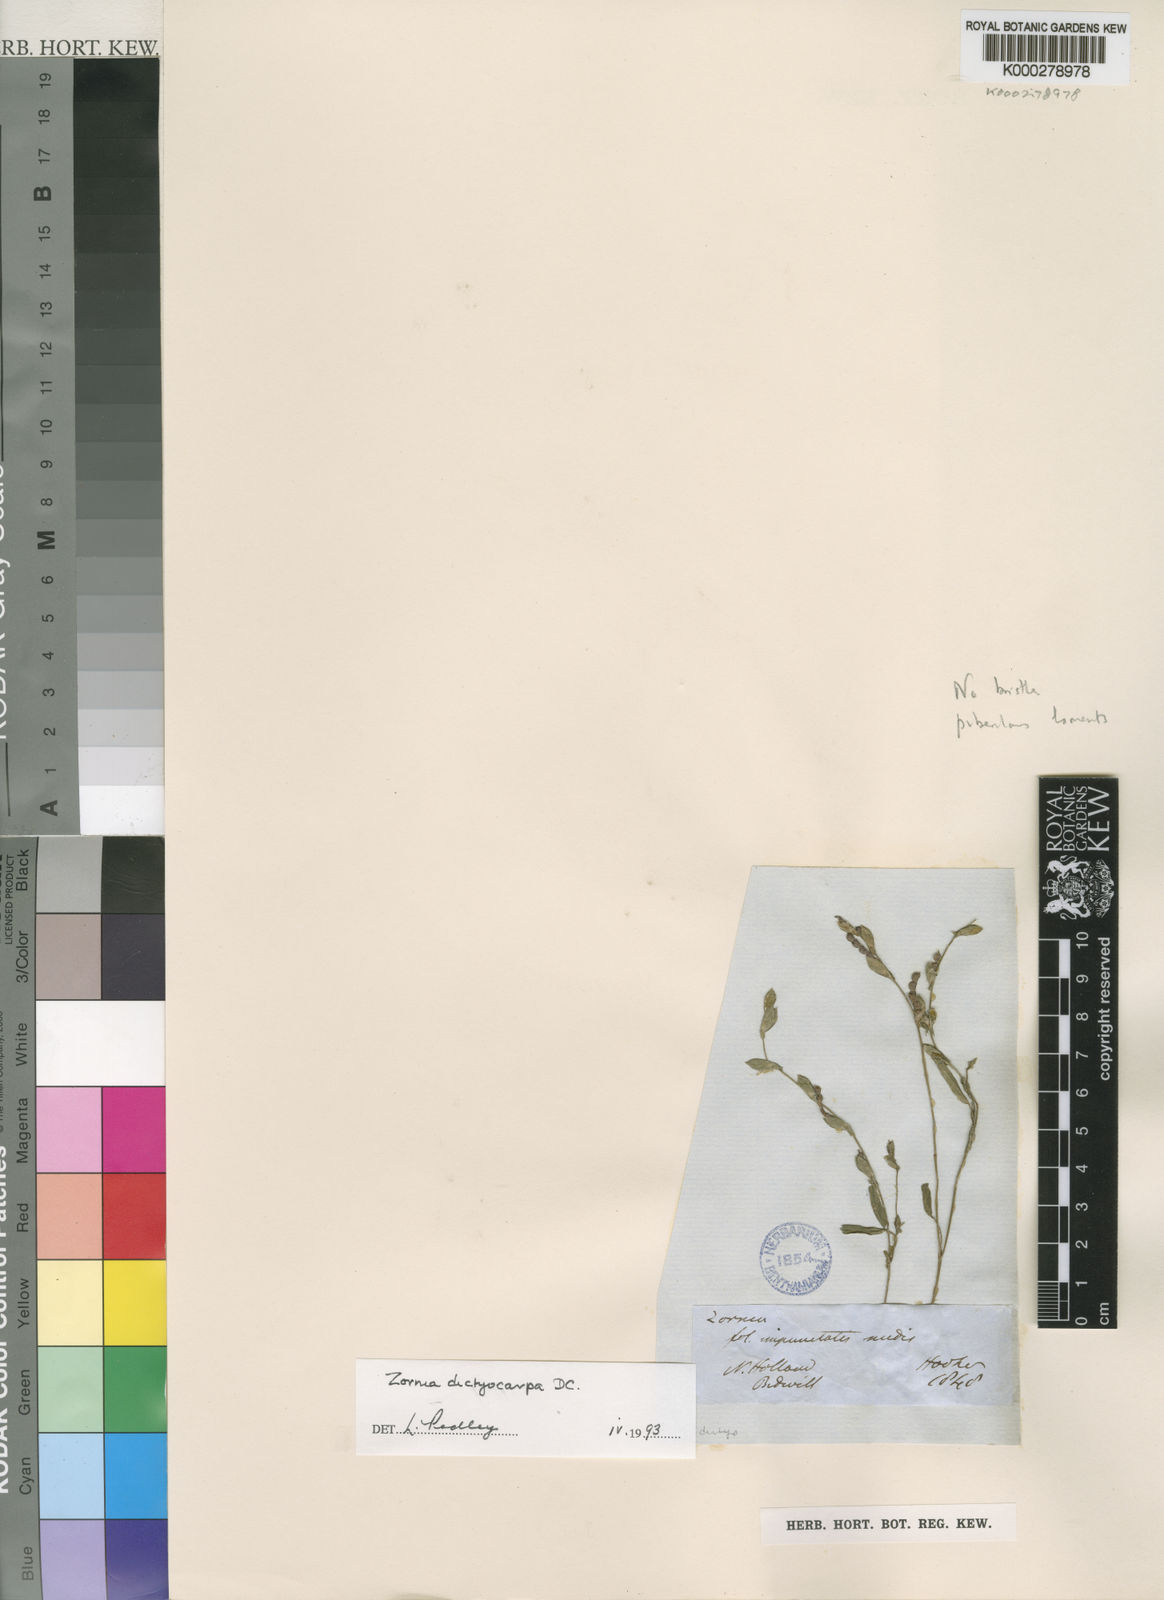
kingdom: Plantae
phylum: Tracheophyta
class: Magnoliopsida
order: Fabales
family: Fabaceae
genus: Zornia
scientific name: Zornia dyctiocarpa
